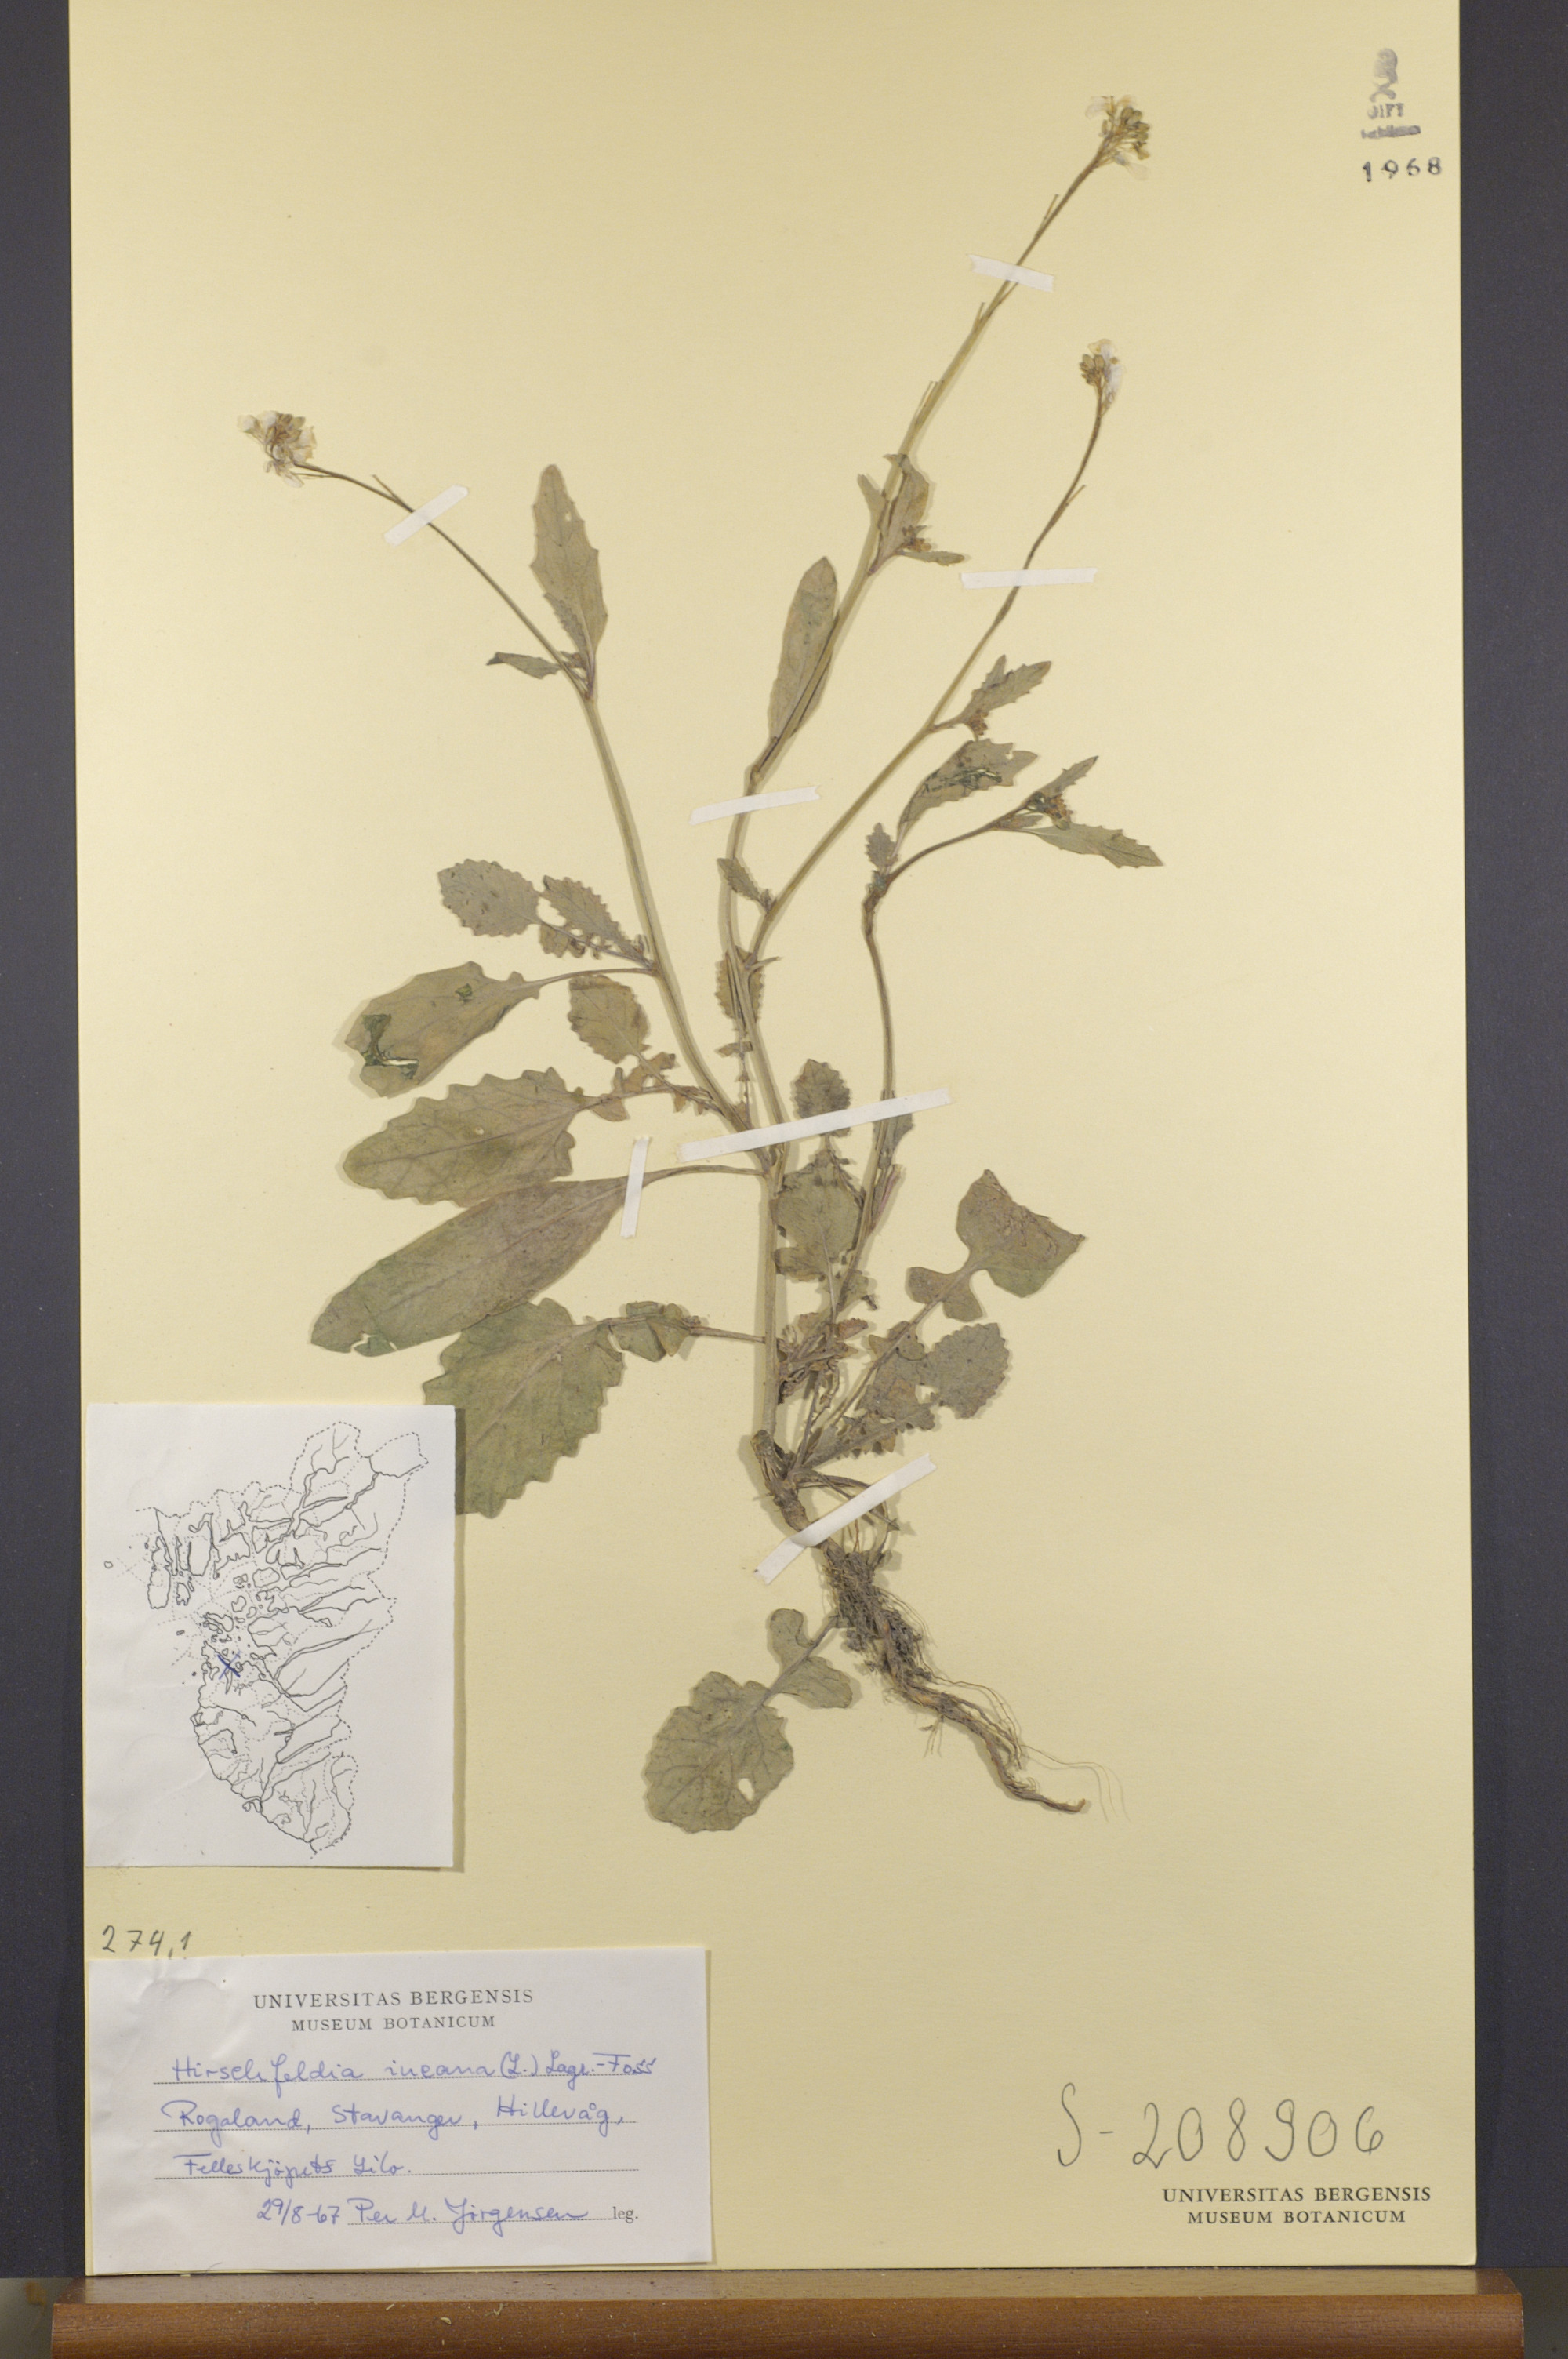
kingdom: Plantae
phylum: Tracheophyta
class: Magnoliopsida
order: Brassicales
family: Brassicaceae
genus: Hirschfeldia
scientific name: Hirschfeldia incana
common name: Hoary mustard
